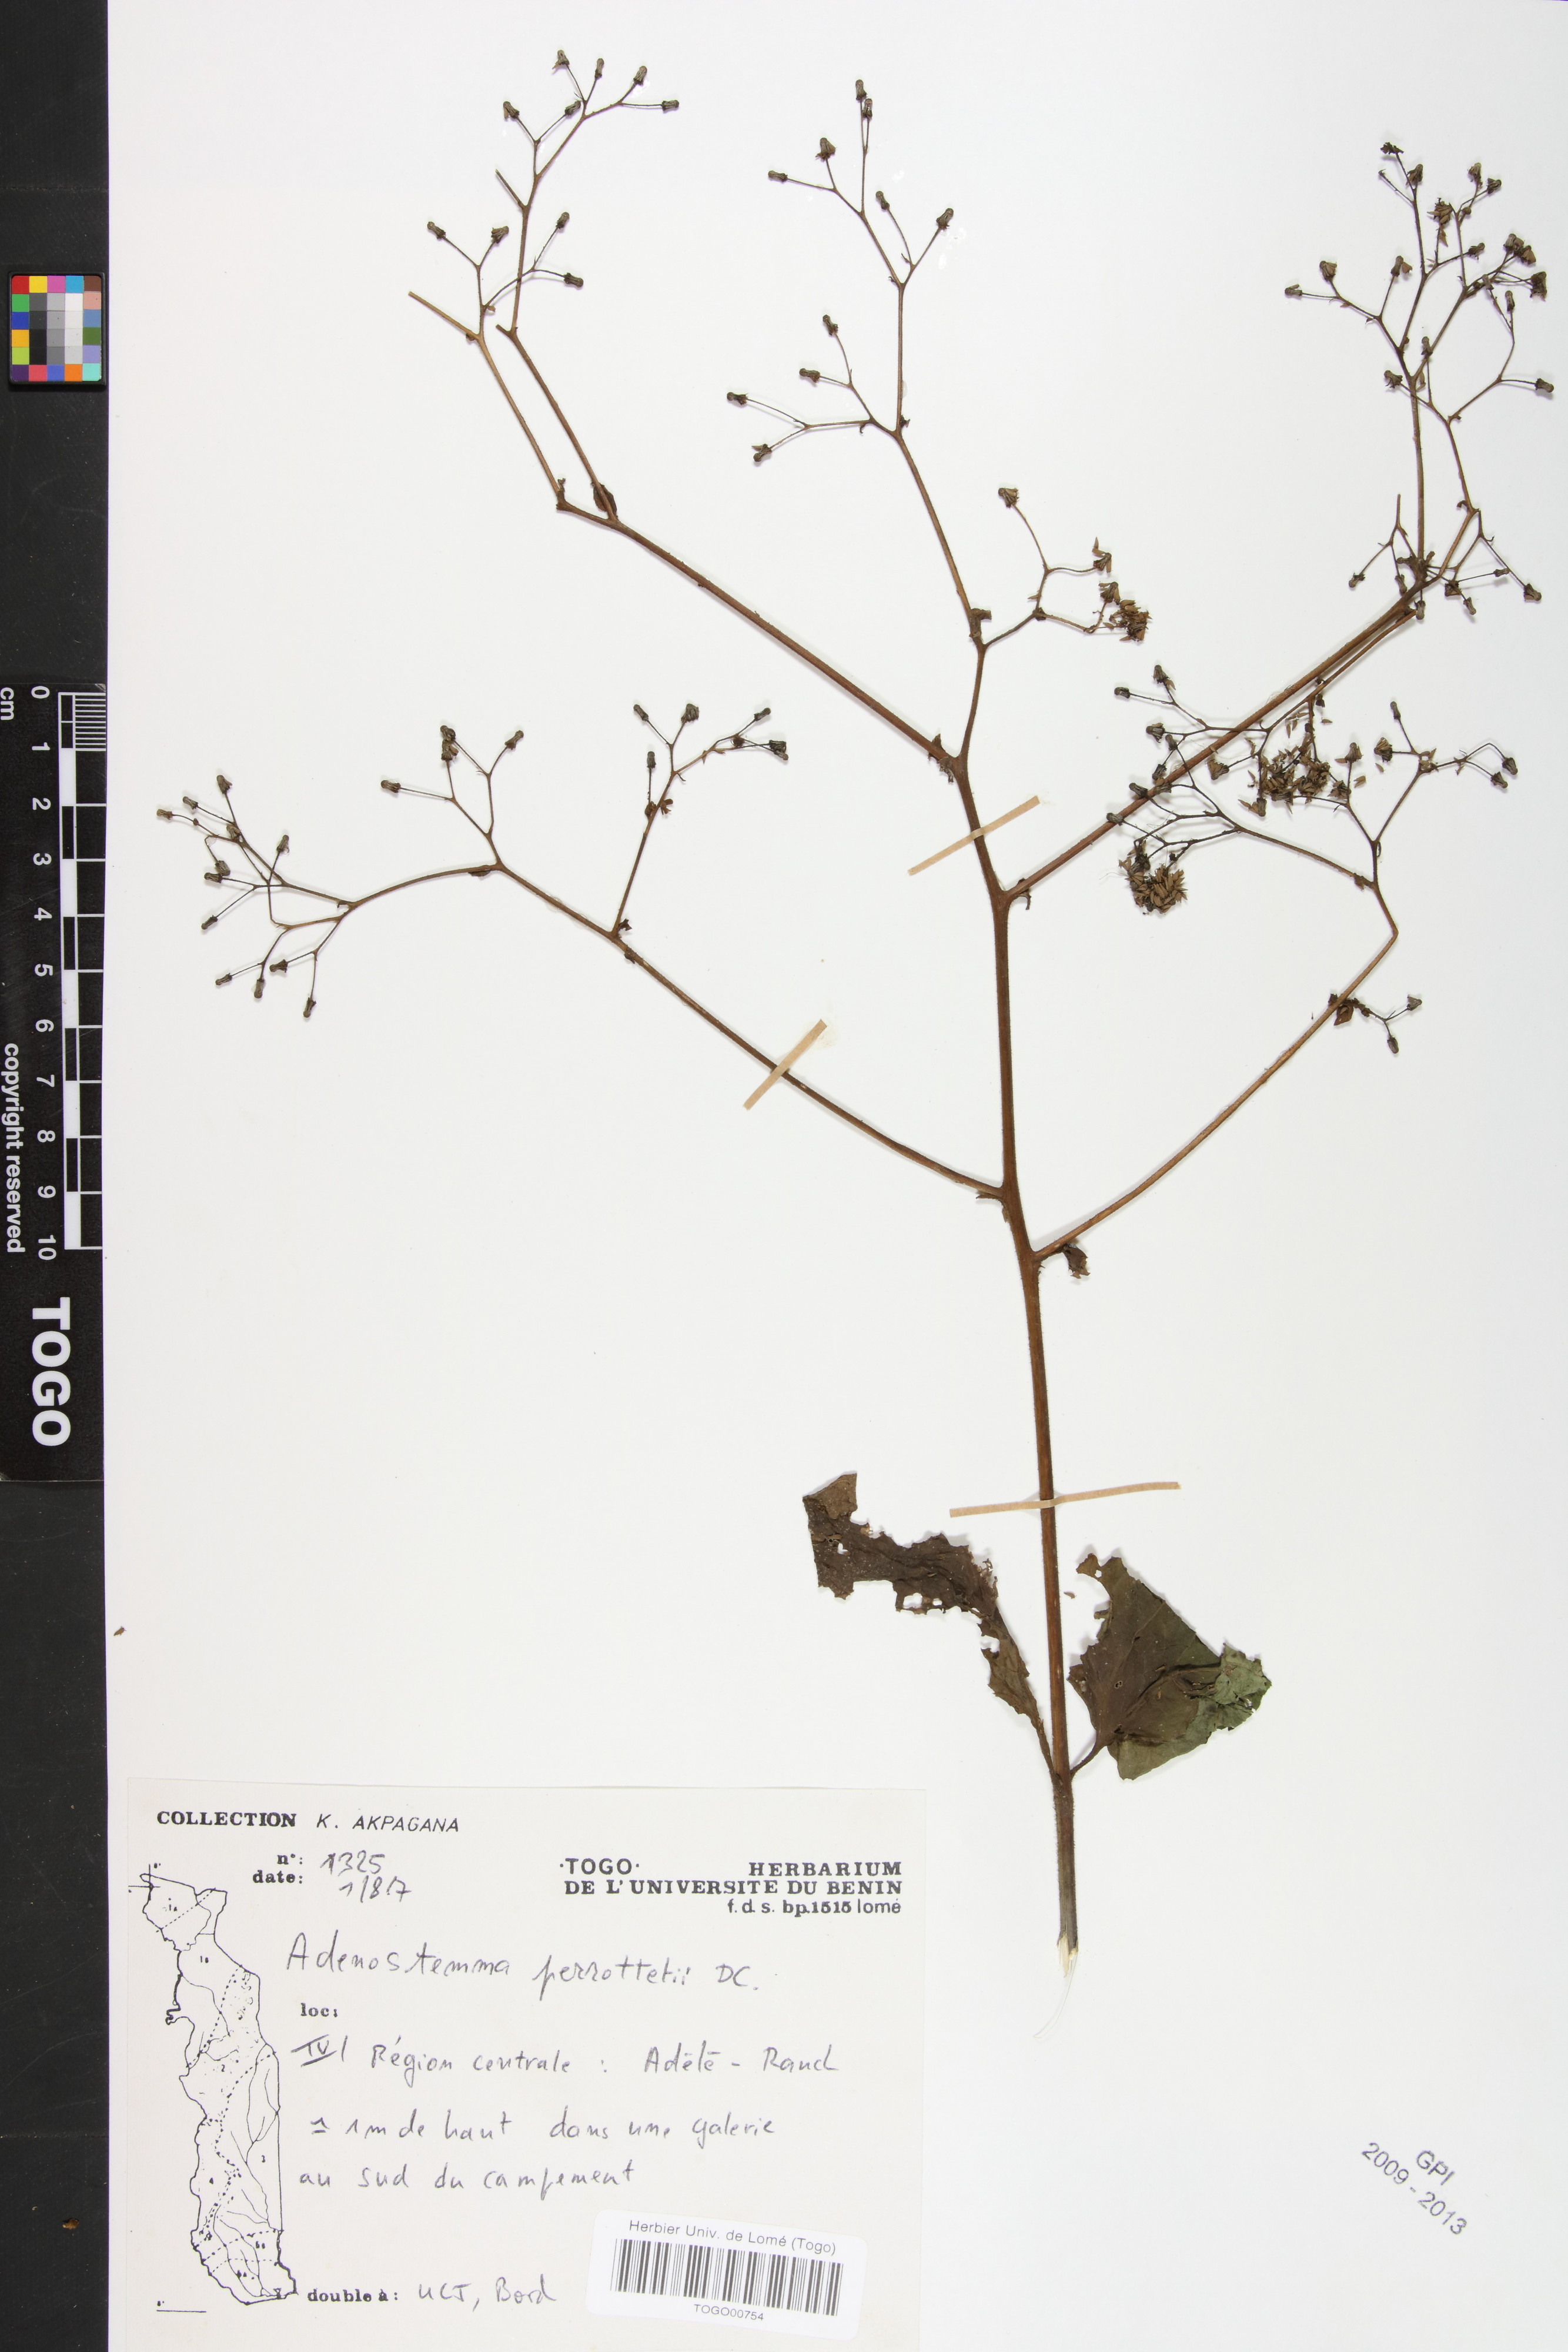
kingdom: Plantae
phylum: Tracheophyta
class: Magnoliopsida
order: Asterales
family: Asteraceae
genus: Adenostemma
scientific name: Adenostemma viscosum
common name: Dungweed
